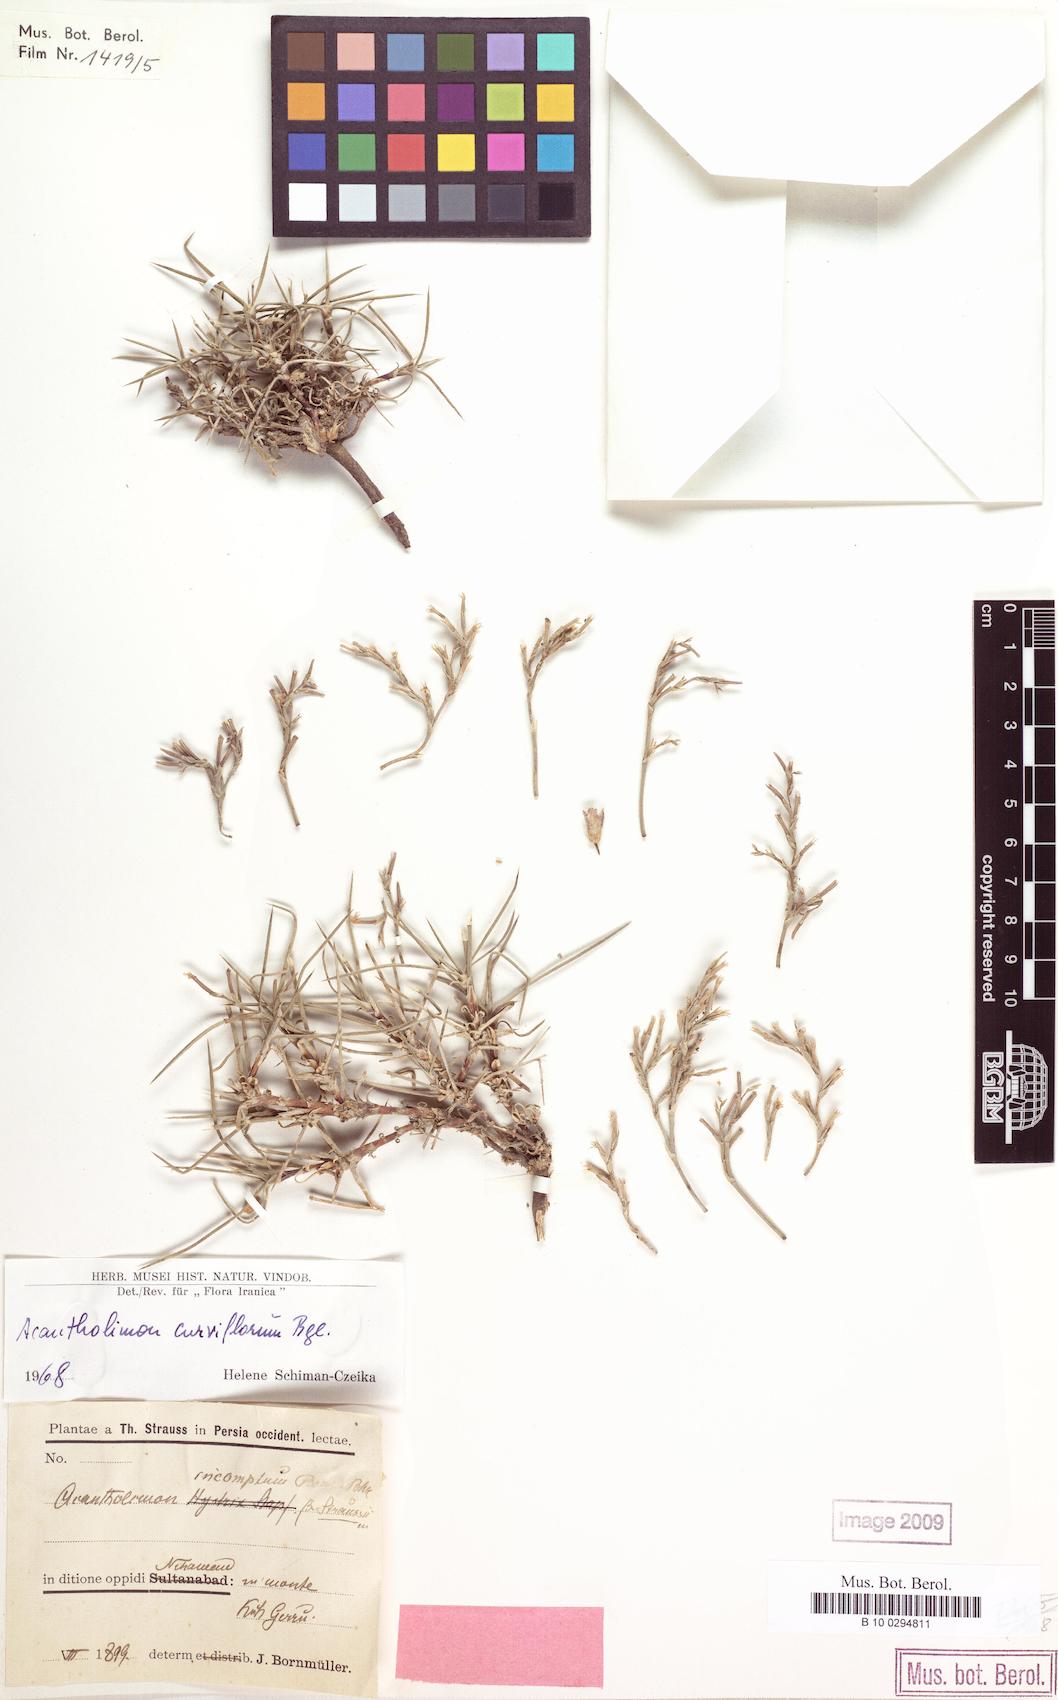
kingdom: Plantae
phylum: Tracheophyta
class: Magnoliopsida
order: Caryophyllales
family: Plumbaginaceae
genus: Acantholimon
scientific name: Acantholimon quinquelobum
